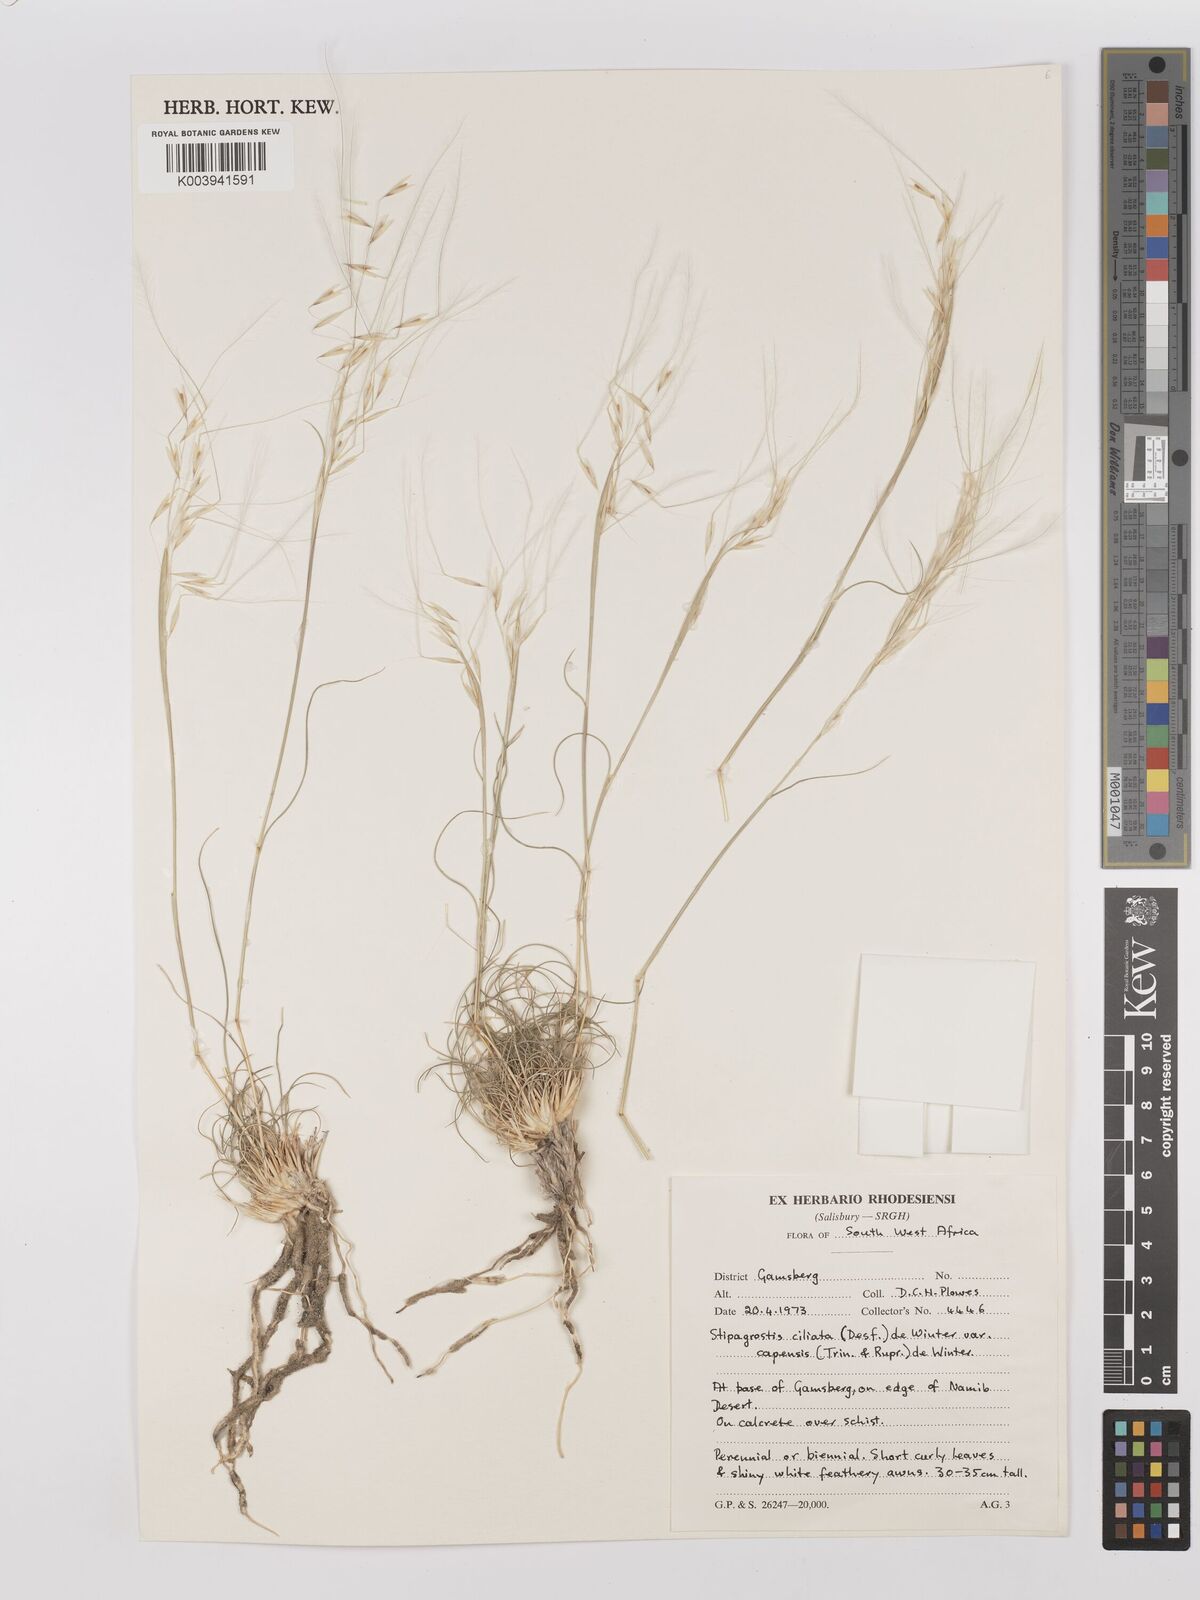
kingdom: Plantae
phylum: Tracheophyta
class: Liliopsida
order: Poales
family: Poaceae
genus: Stipagrostis
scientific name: Stipagrostis ciliata
